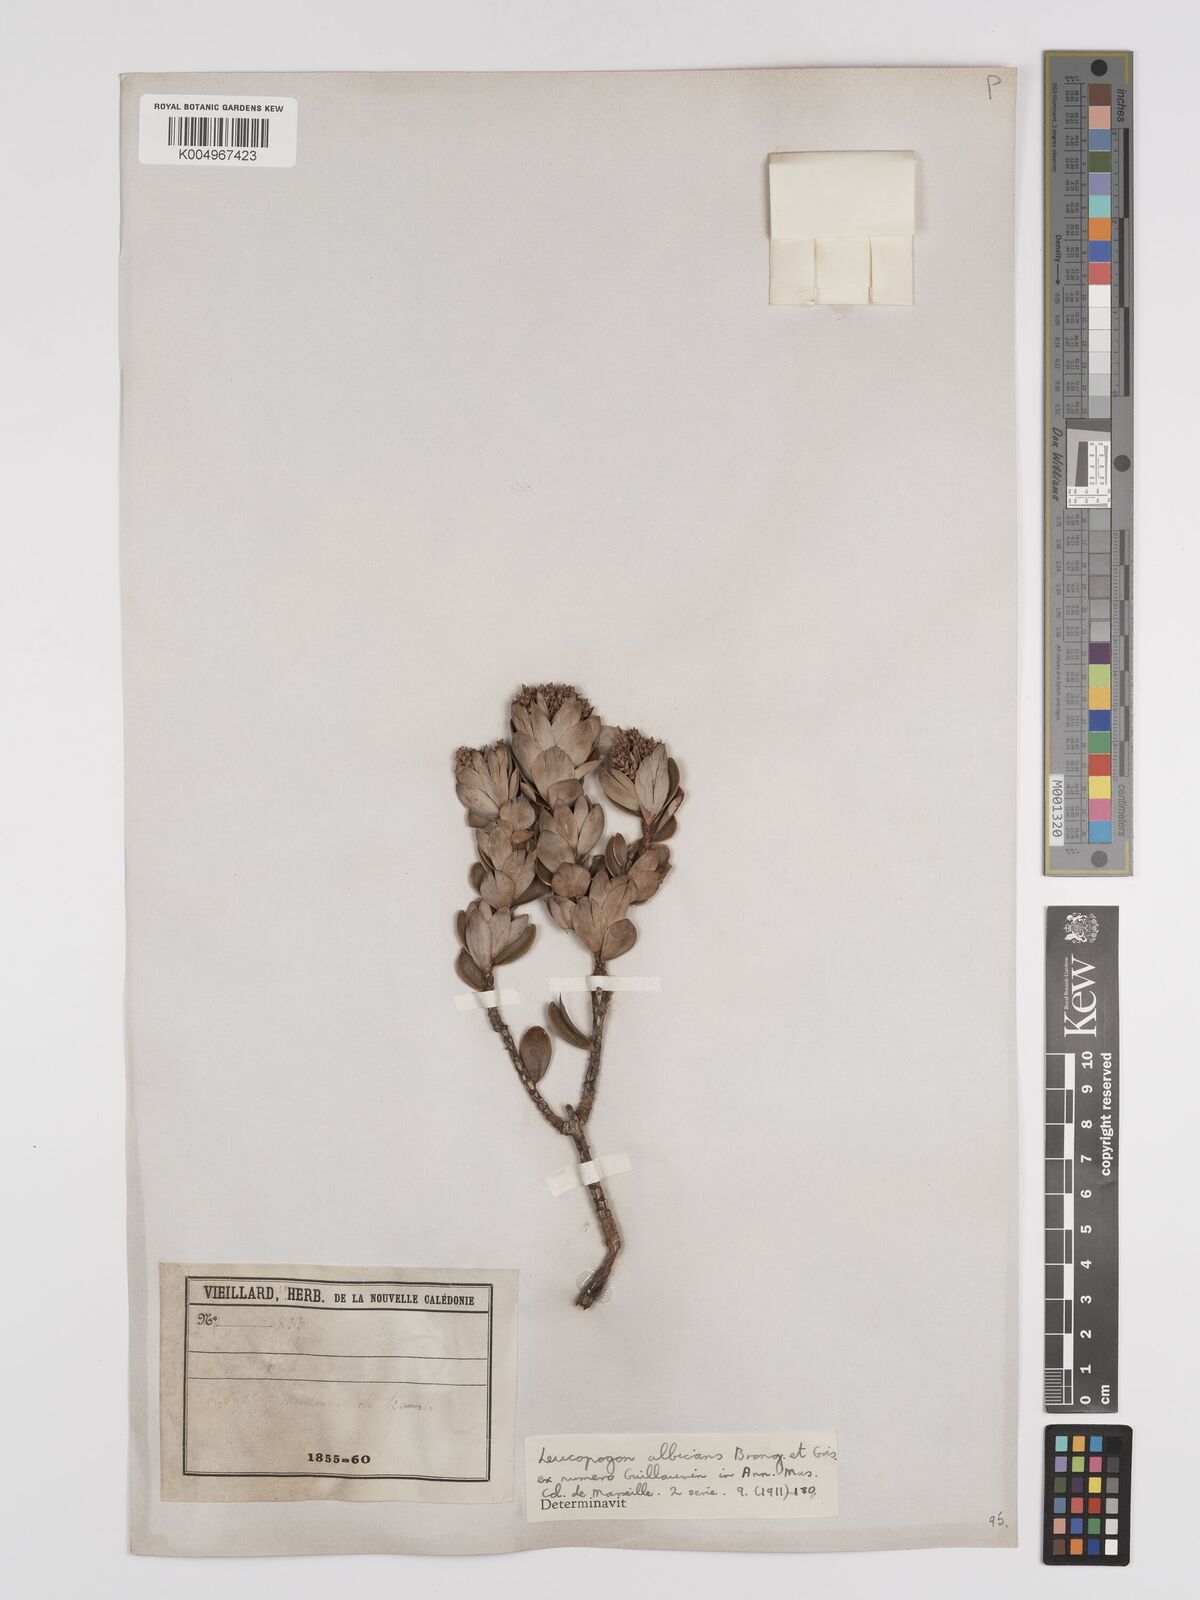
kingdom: Plantae
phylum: Tracheophyta
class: Magnoliopsida
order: Ericales
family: Ericaceae
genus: Cyathopsis
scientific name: Cyathopsis albicans
